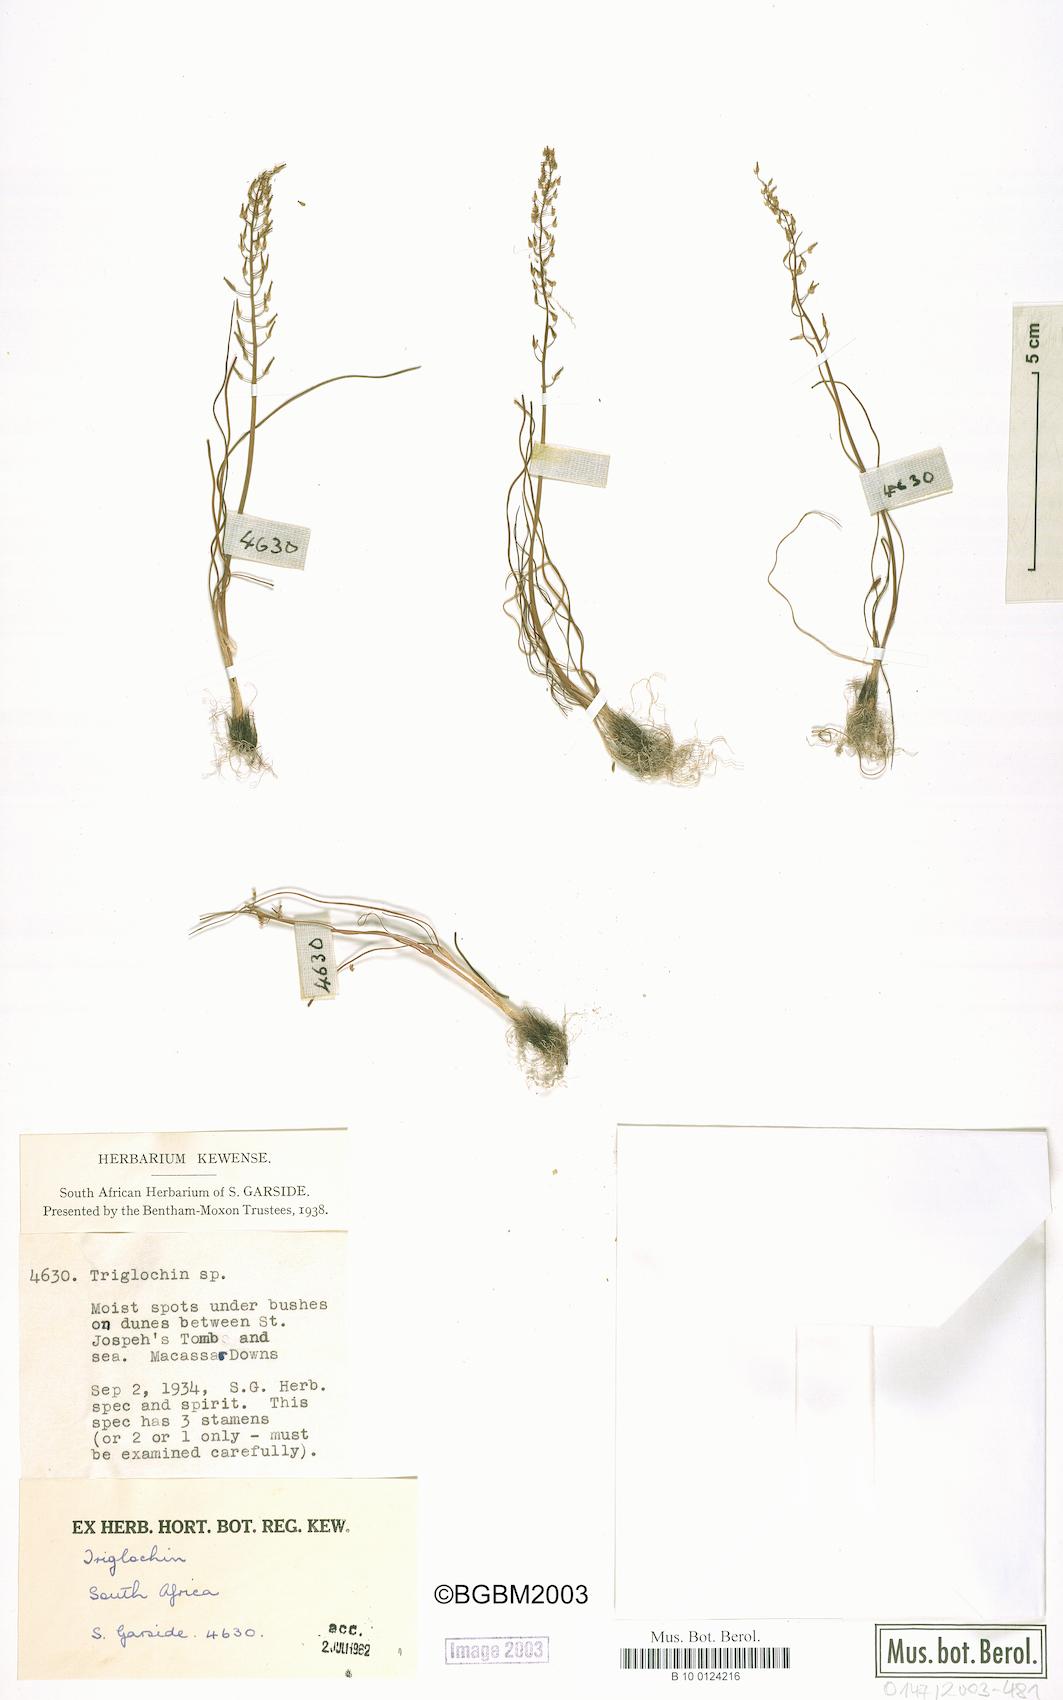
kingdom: Plantae
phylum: Tracheophyta
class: Liliopsida
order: Alismatales
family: Juncaginaceae
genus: Triglochin
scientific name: Triglochin bulbosa
